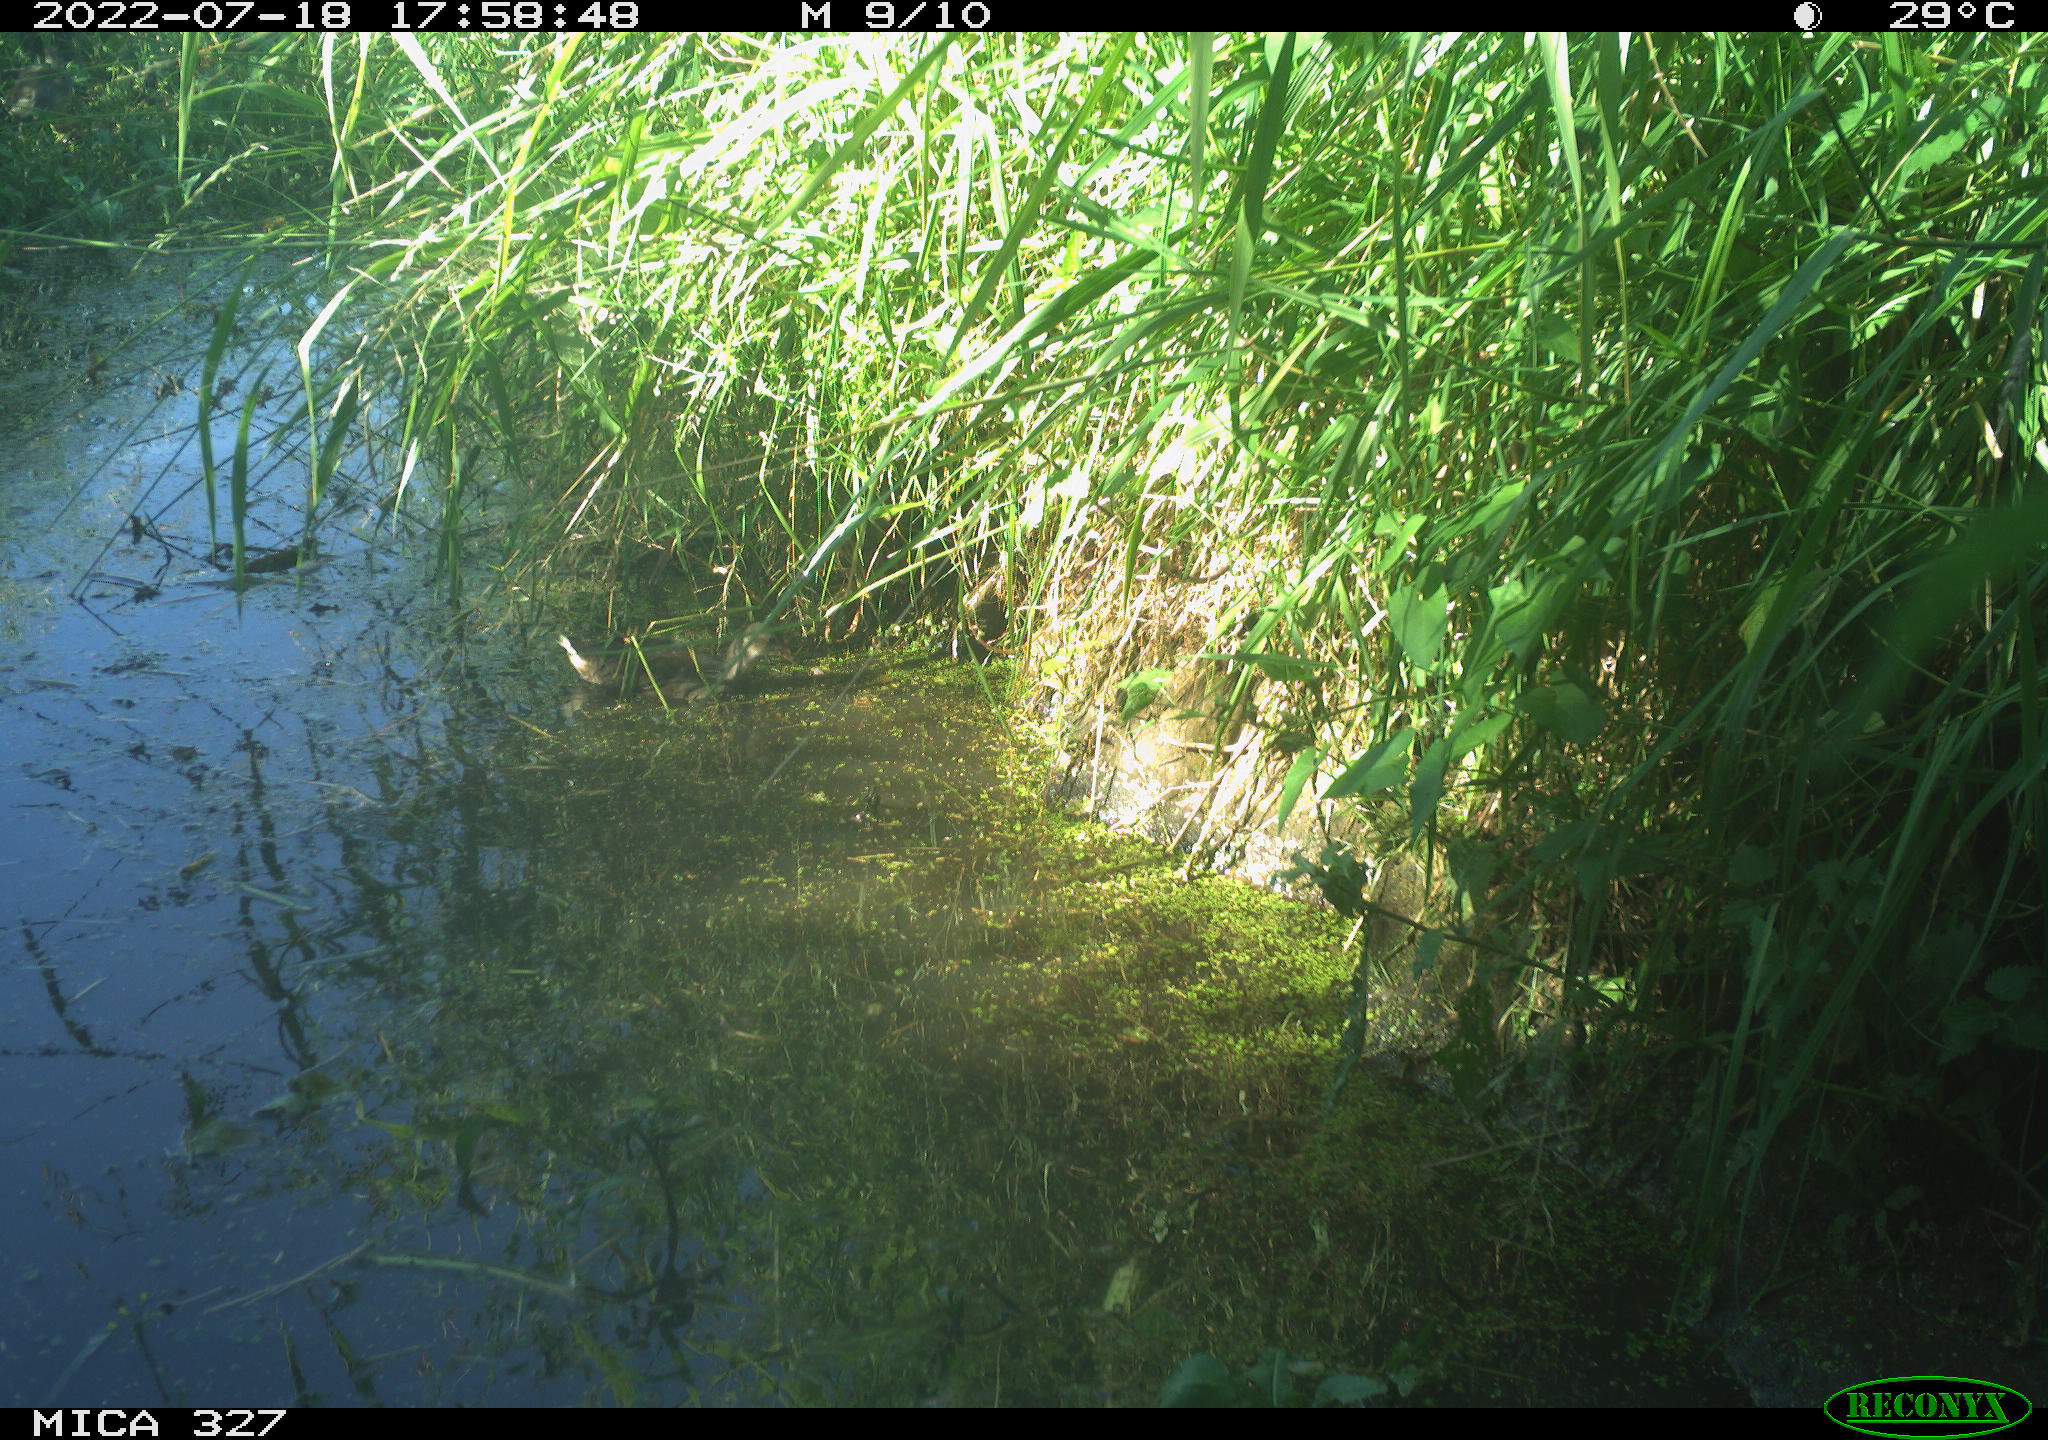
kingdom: Animalia
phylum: Chordata
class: Aves
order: Gruiformes
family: Rallidae
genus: Gallinula
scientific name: Gallinula chloropus
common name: Common moorhen
